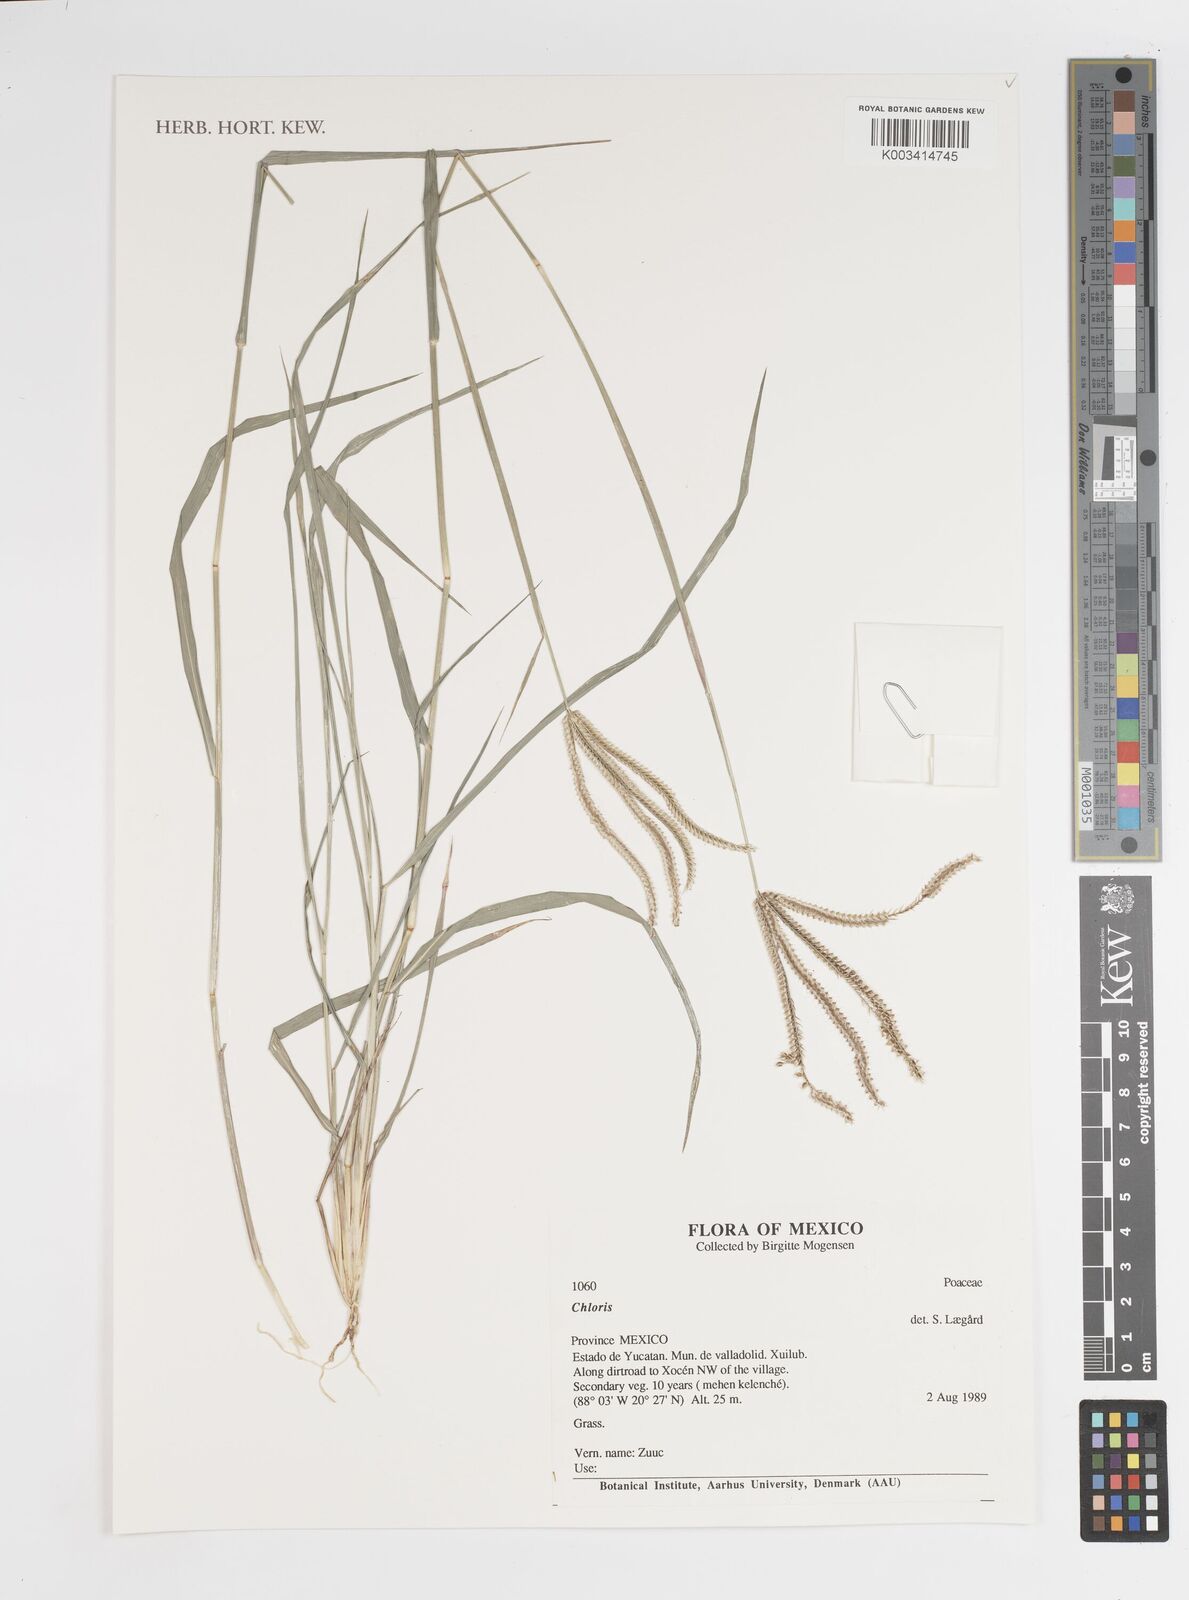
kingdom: Plantae
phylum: Tracheophyta
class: Liliopsida
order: Poales
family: Poaceae
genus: Chloris
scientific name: Chloris
